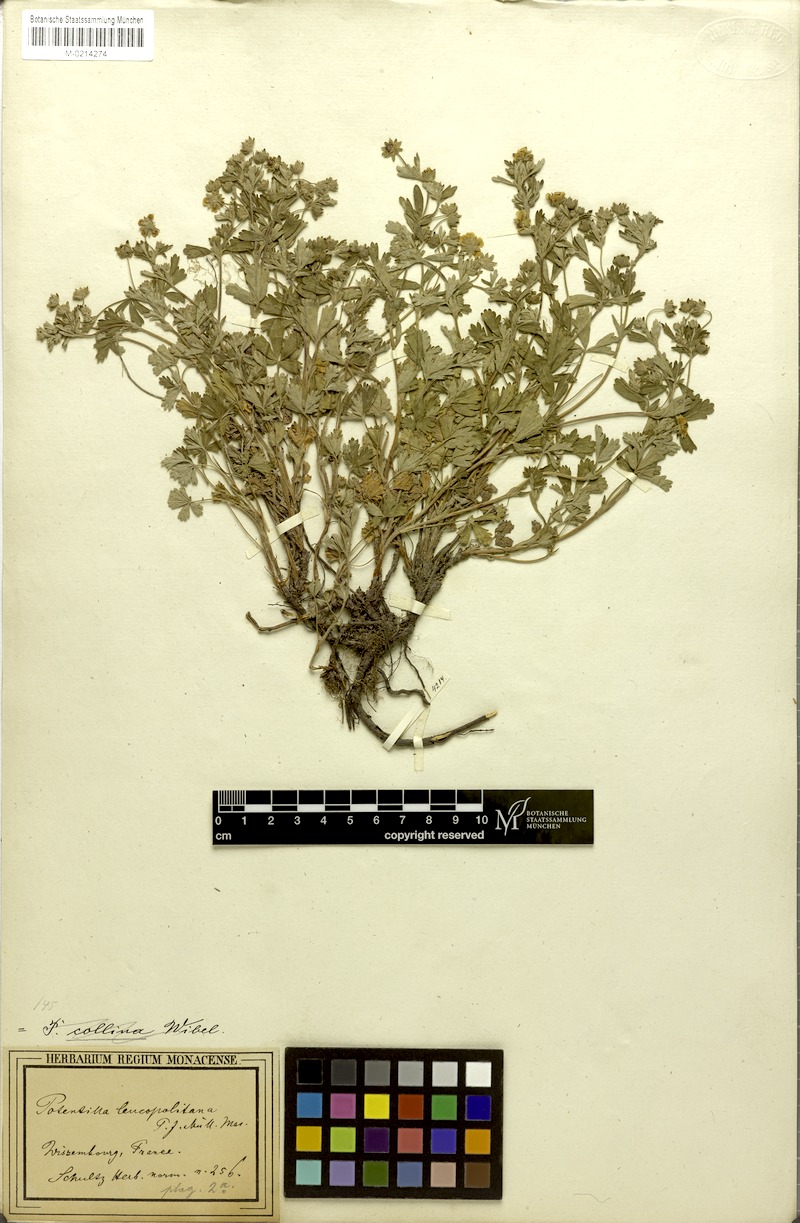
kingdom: Plantae
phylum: Tracheophyta
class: Magnoliopsida
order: Rosales
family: Rosaceae
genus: Potentilla
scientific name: Potentilla collina
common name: Palmleaf cinquefoil
